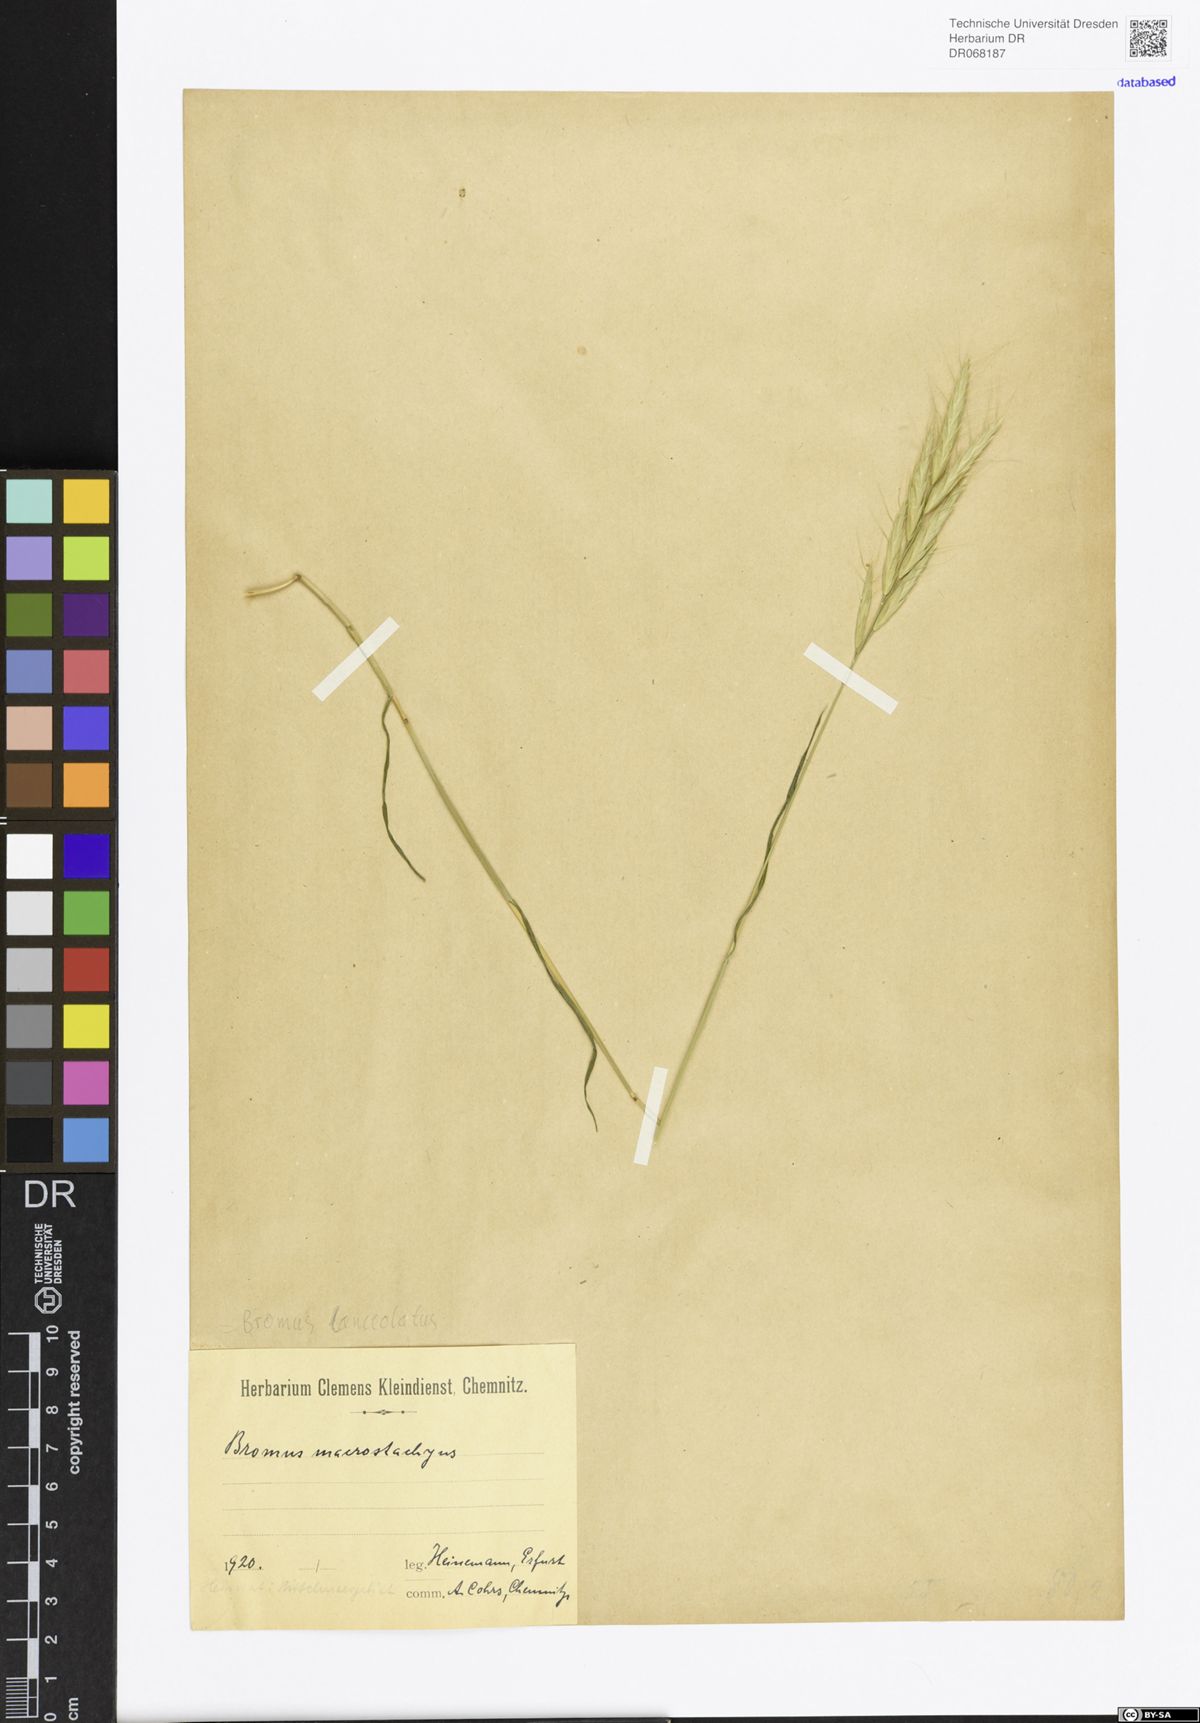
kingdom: Plantae
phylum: Tracheophyta
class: Liliopsida
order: Poales
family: Poaceae
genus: Bromus
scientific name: Bromus lanceolatus
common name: Mediterranean brome
